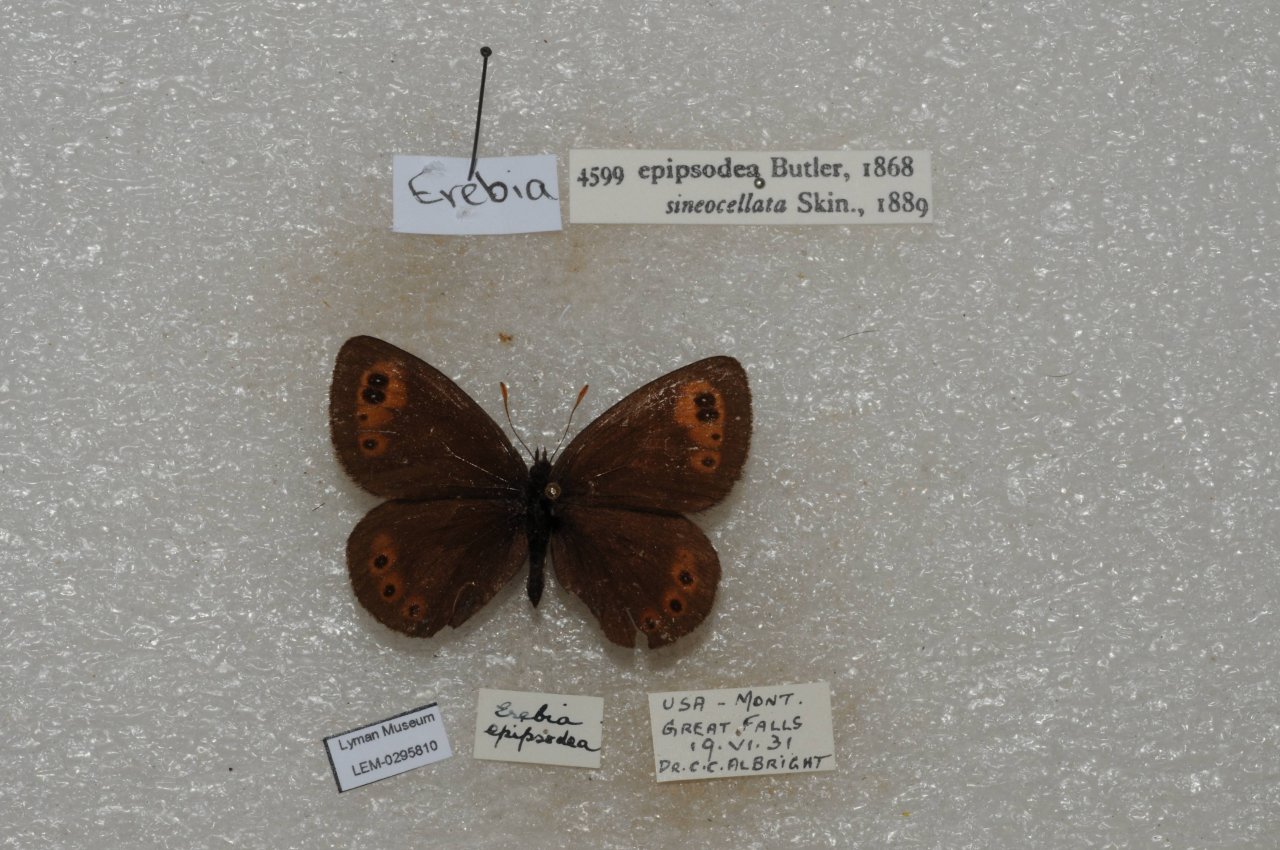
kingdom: Animalia
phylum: Arthropoda
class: Insecta
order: Lepidoptera
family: Nymphalidae
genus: Erebia
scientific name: Erebia epipsodea
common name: Common Alpine
